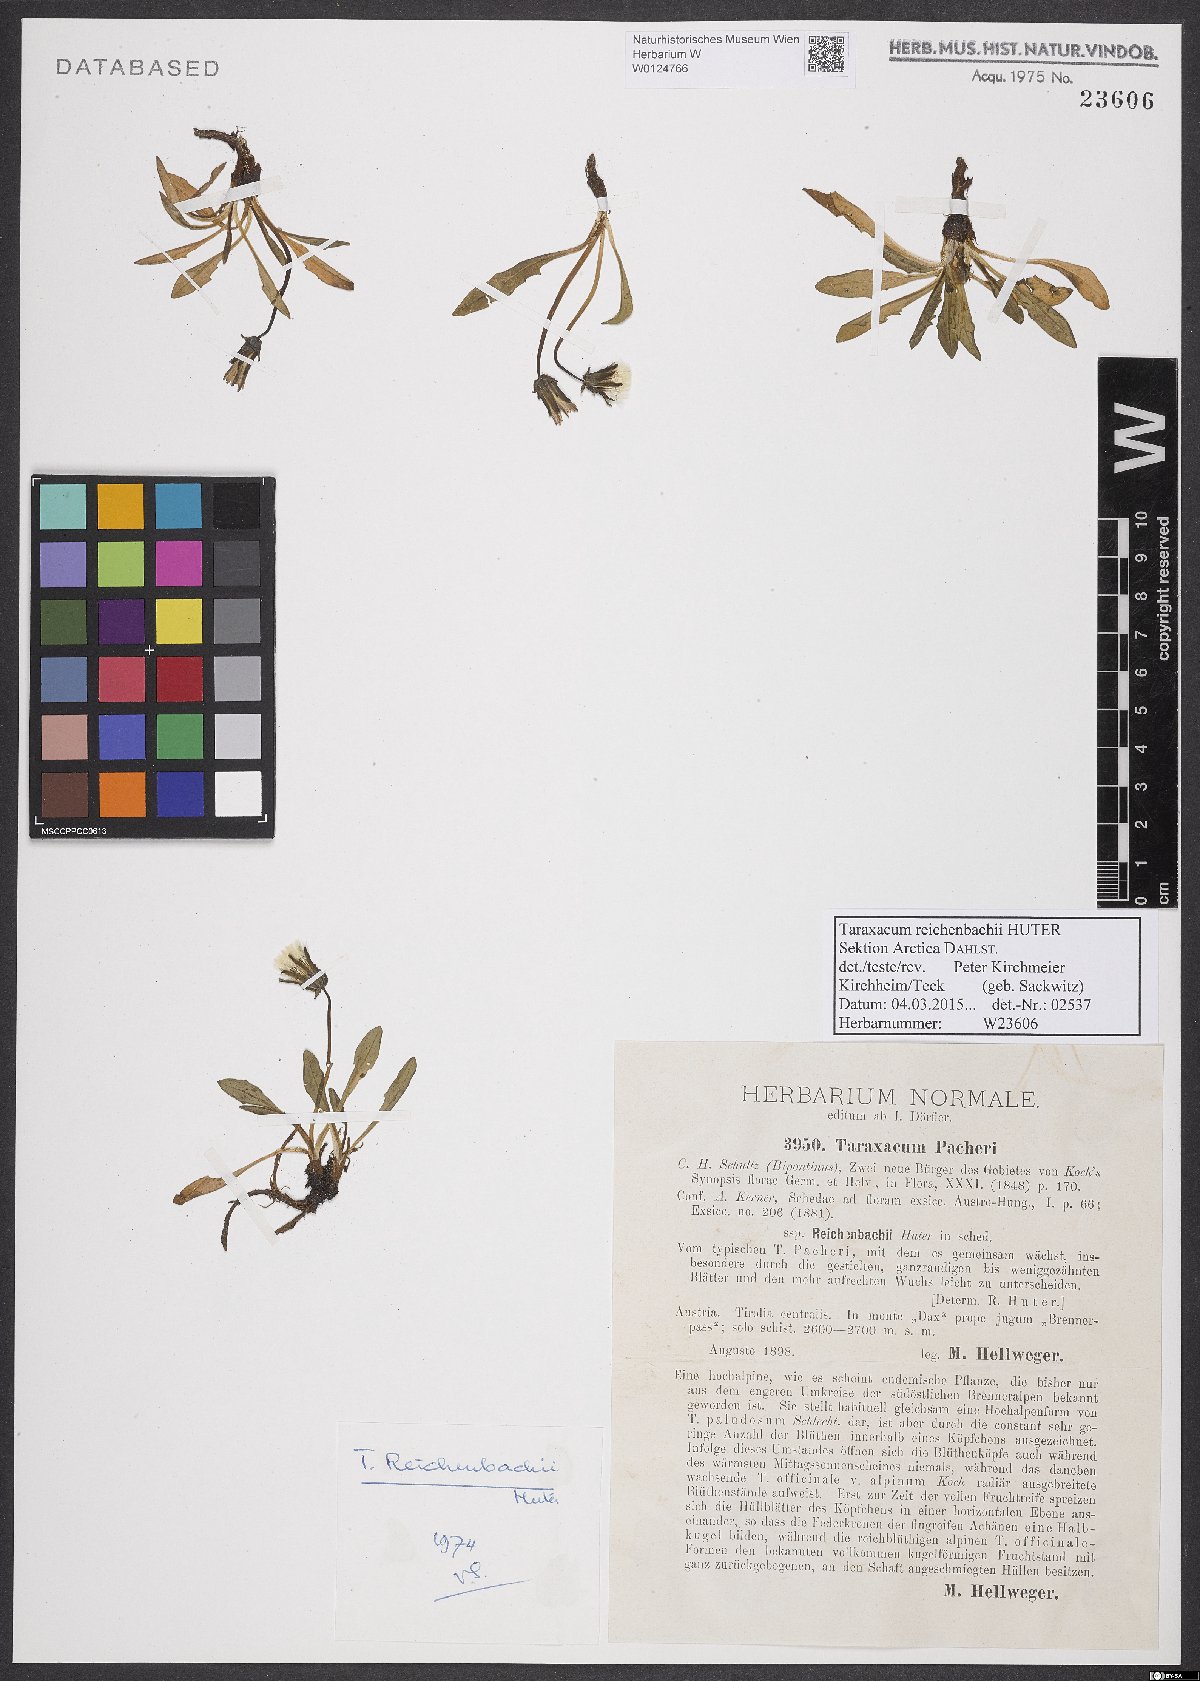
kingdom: Plantae
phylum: Tracheophyta
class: Magnoliopsida
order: Asterales
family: Asteraceae
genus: Taraxacum
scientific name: Taraxacum reichenbachii
